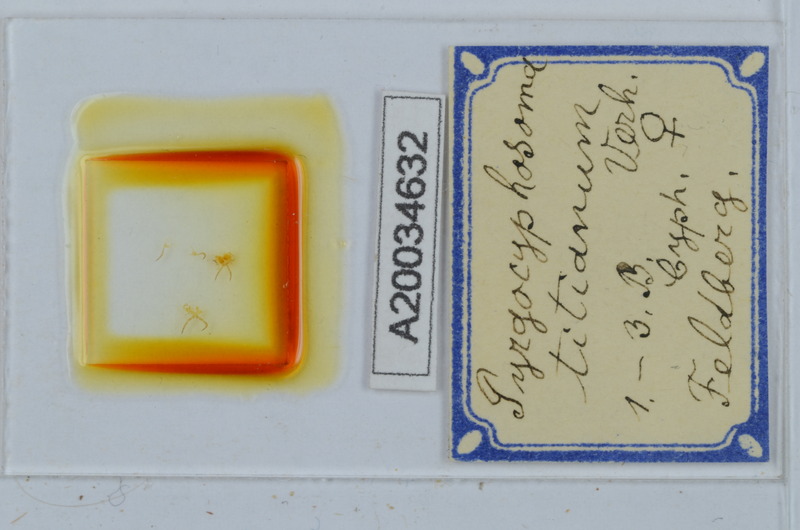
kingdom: Animalia
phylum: Arthropoda
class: Diplopoda
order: Chordeumatida
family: Craspedosomatidae
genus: Pyrgocyphosoma
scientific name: Pyrgocyphosoma titianum
